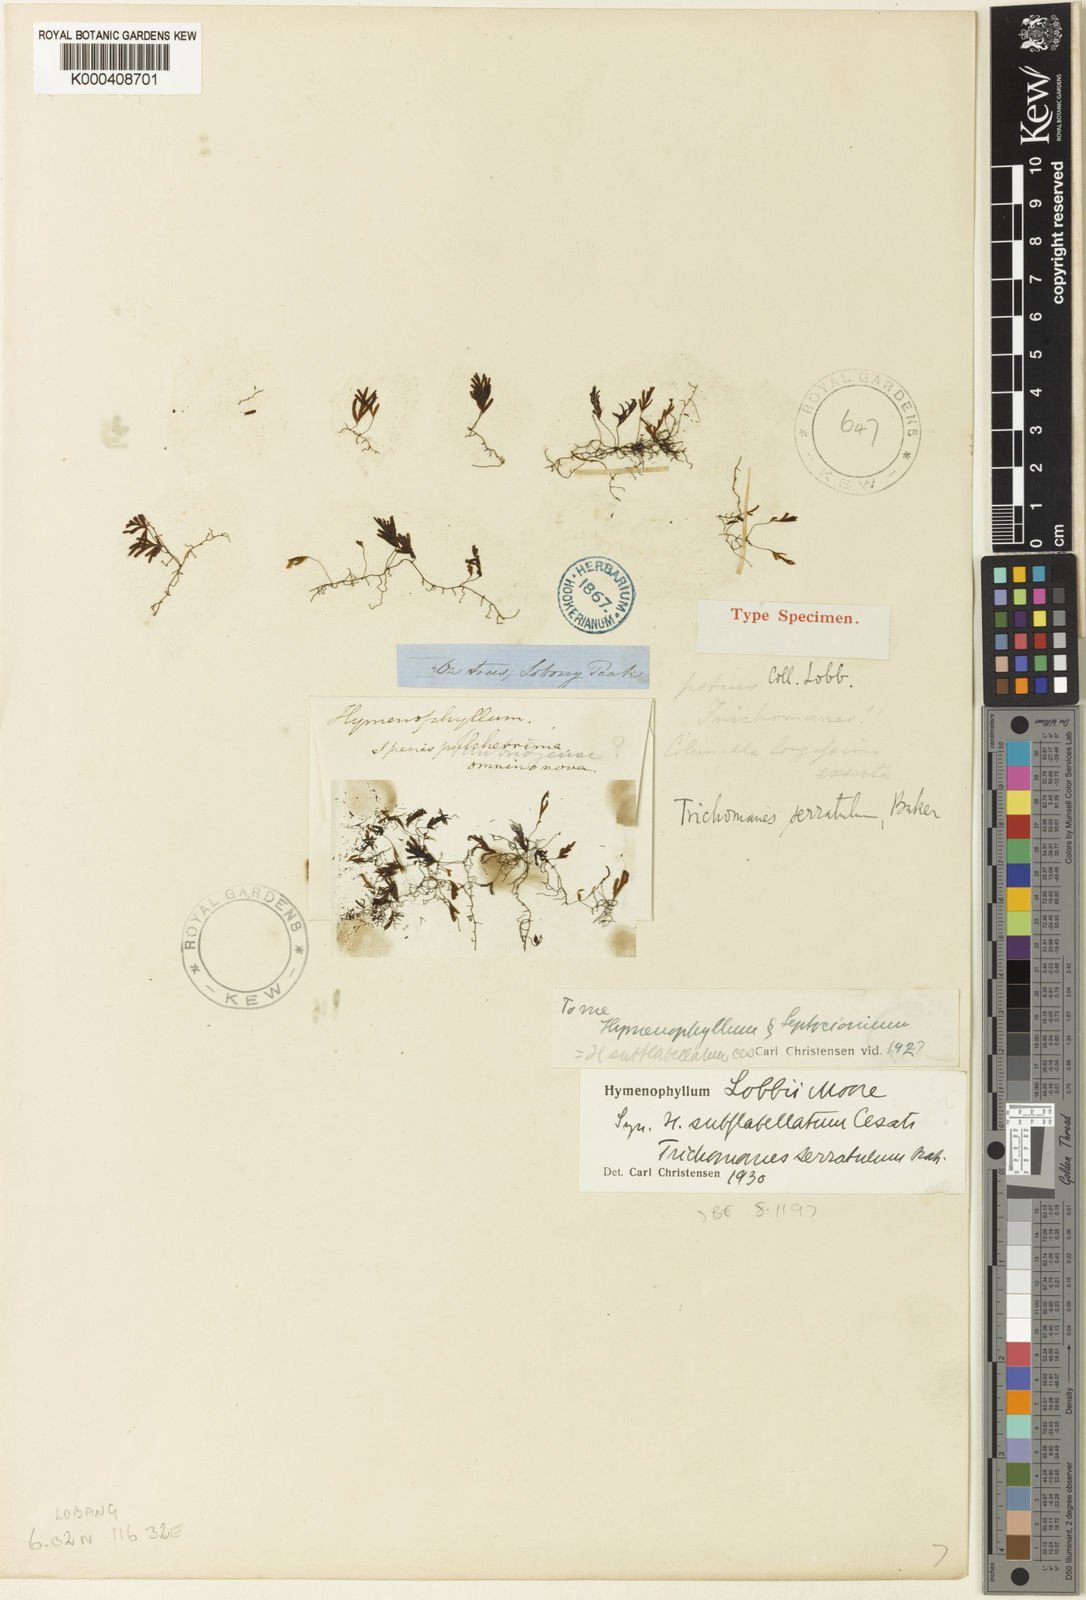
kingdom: Plantae
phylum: Tracheophyta
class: Polypodiopsida
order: Hymenophyllales
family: Hymenophyllaceae
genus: Hymenophyllum
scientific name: Hymenophyllum
